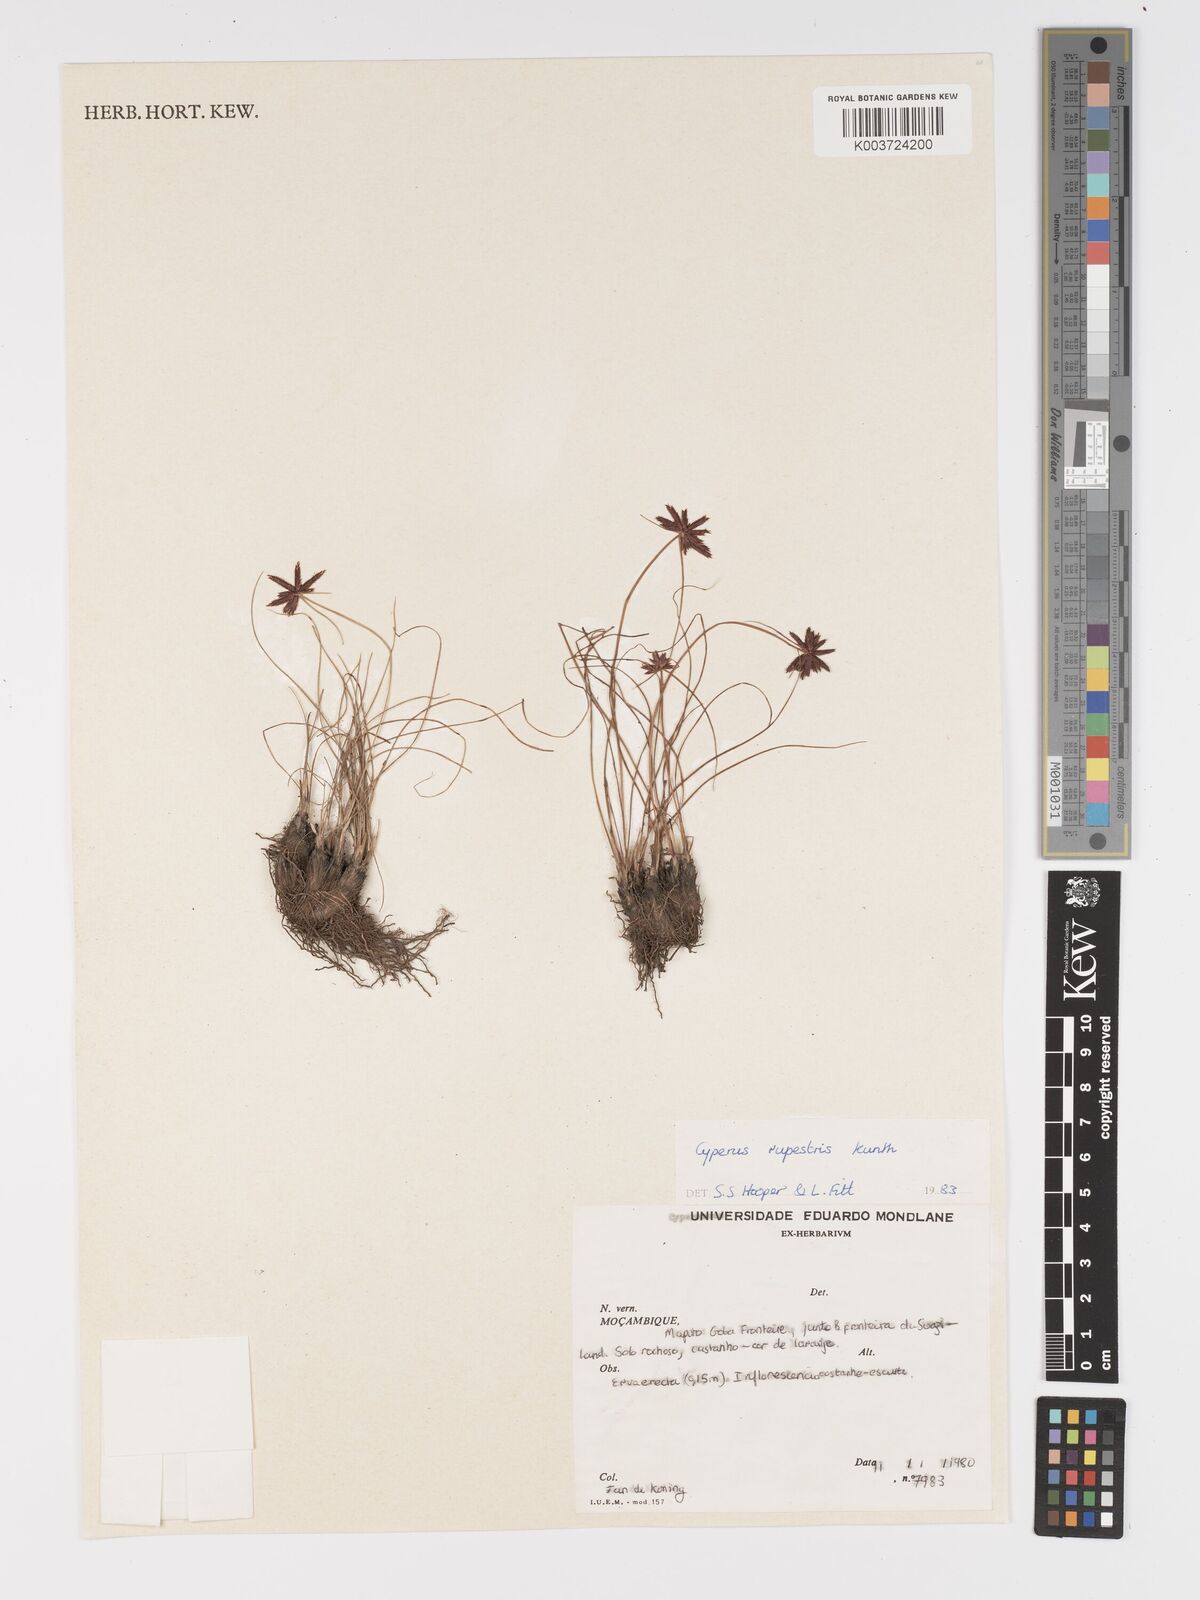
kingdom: Plantae
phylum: Tracheophyta
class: Liliopsida
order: Poales
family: Cyperaceae
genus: Cyperus
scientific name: Cyperus semitrifidus
